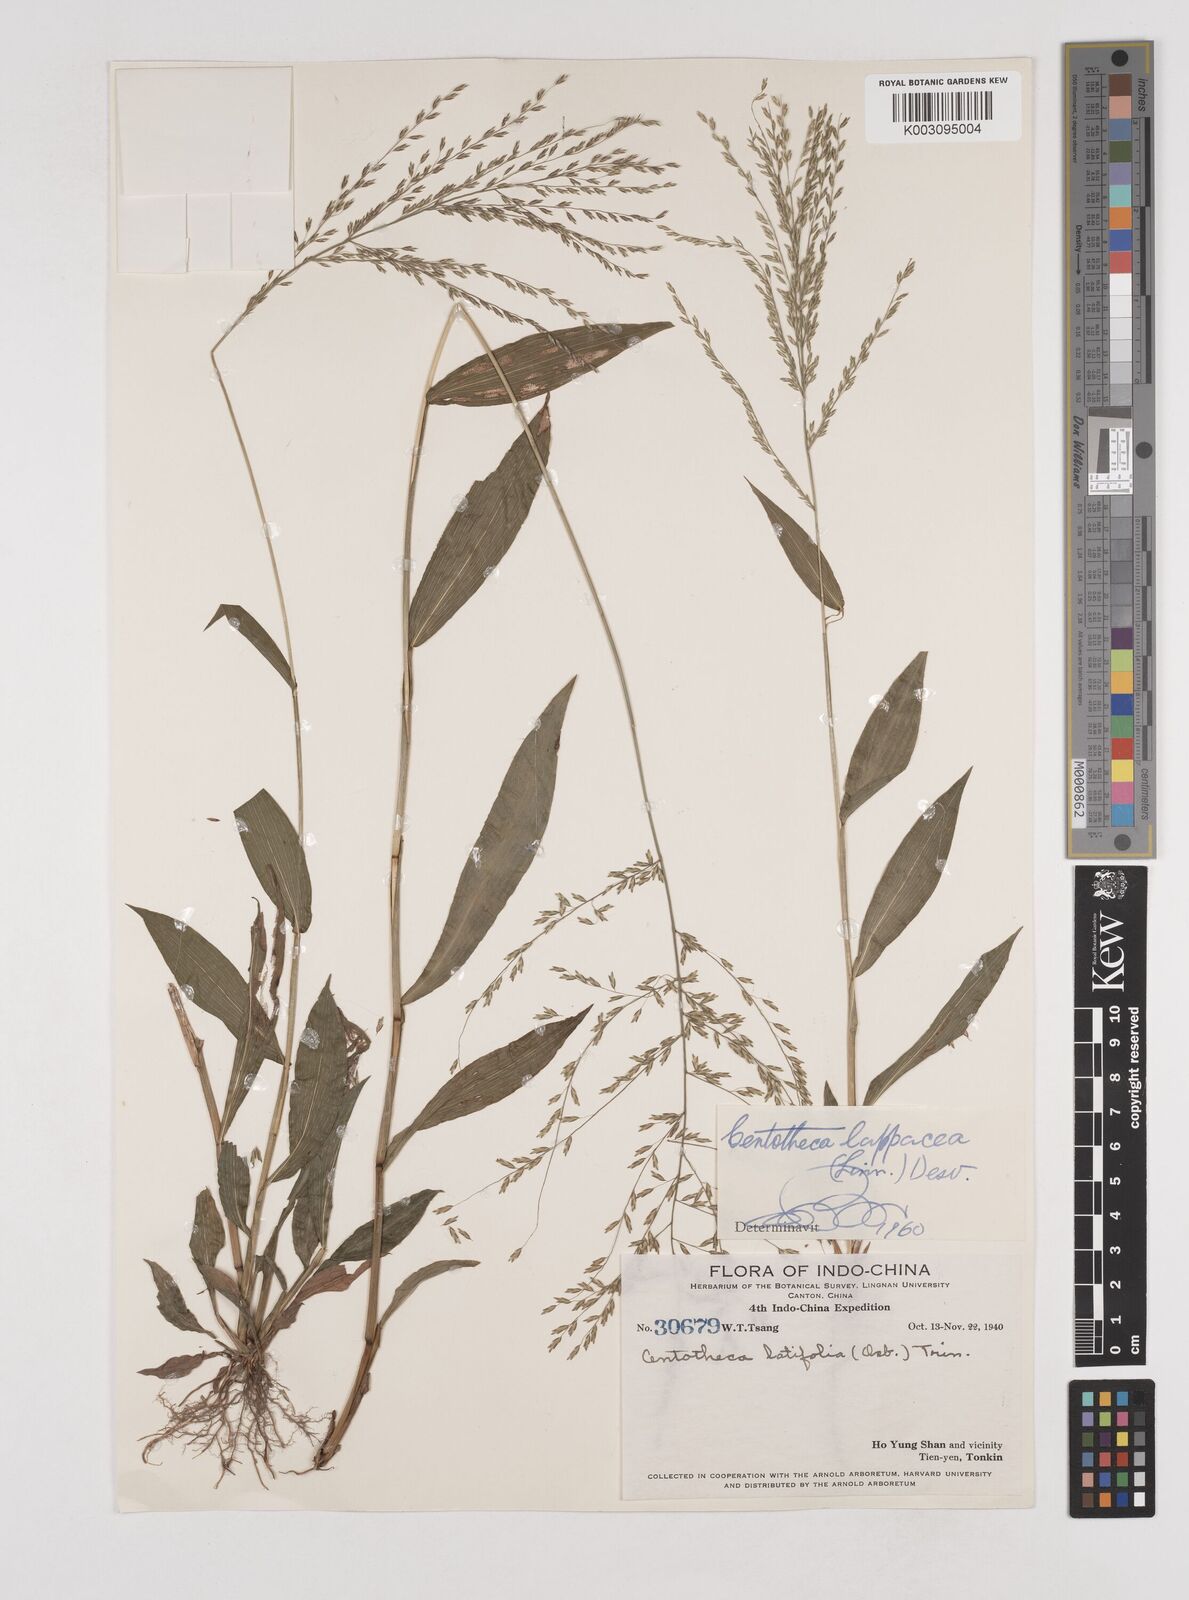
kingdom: Plantae
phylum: Tracheophyta
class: Liliopsida
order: Poales
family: Poaceae
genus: Centotheca
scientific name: Centotheca lappacea
